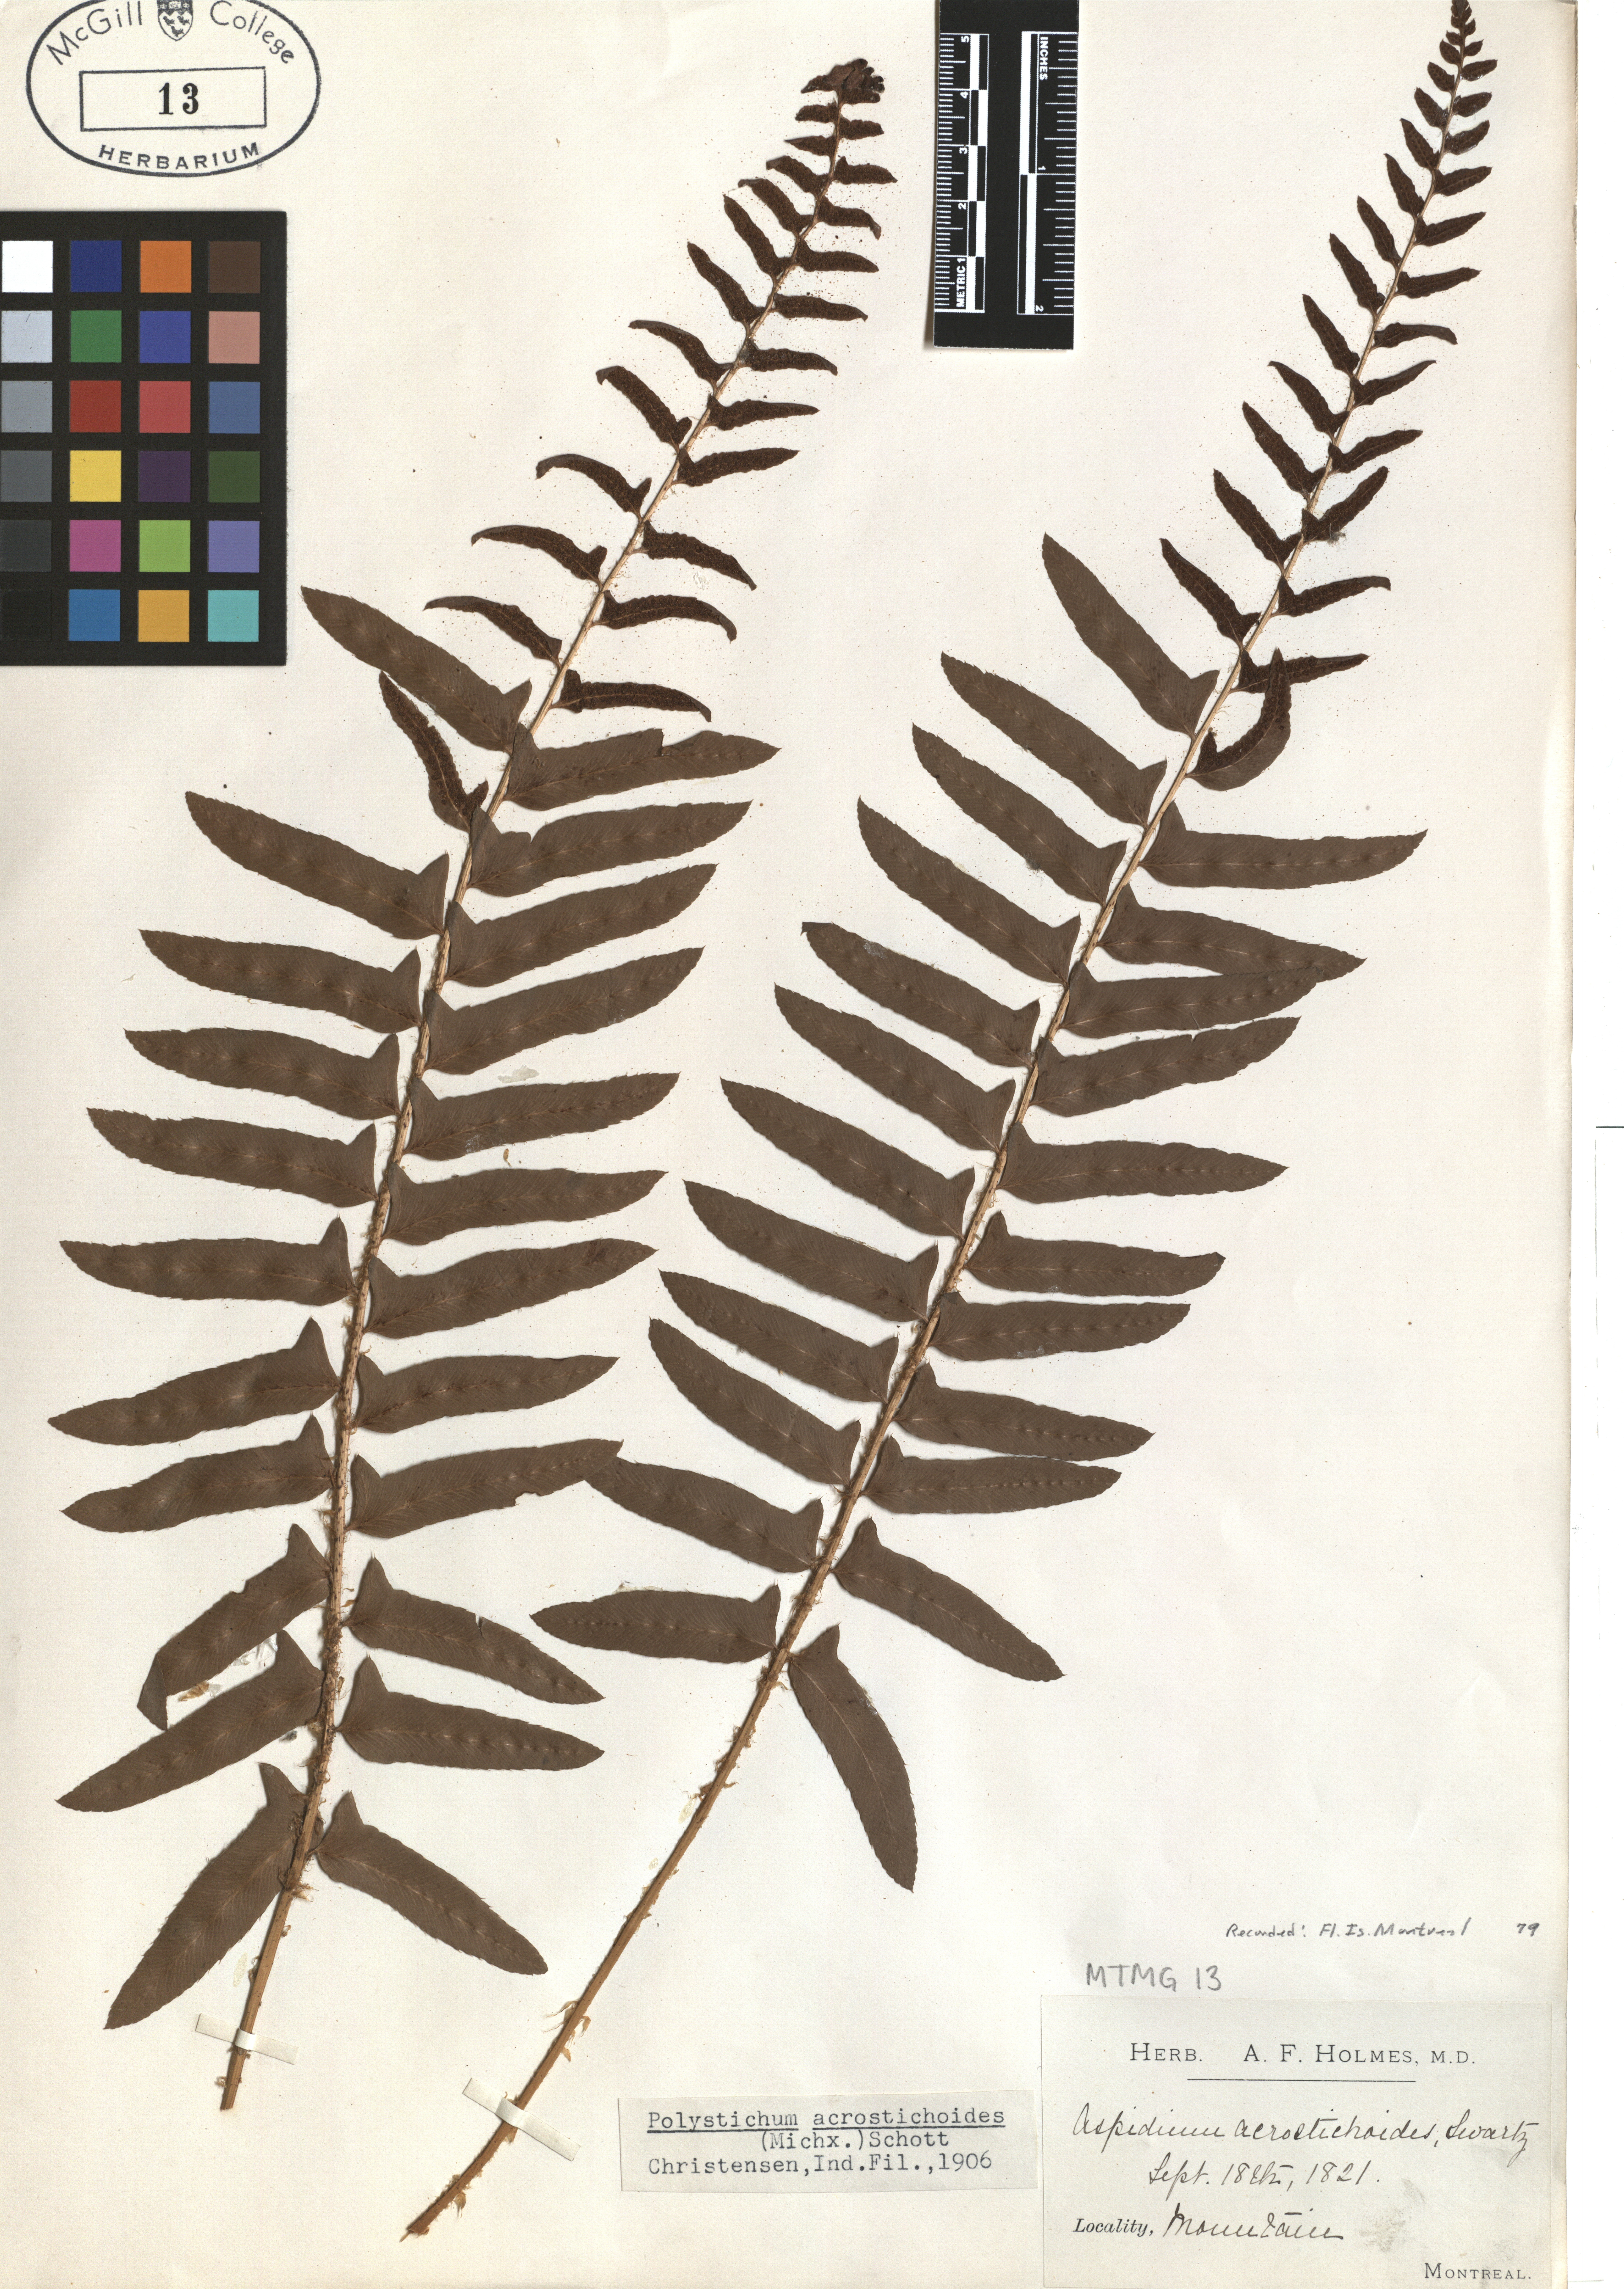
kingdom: Plantae
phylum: Tracheophyta
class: Polypodiopsida
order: Polypodiales
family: Dryopteridaceae
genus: Polystichum
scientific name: Polystichum acrostichoides
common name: Christmas fern
